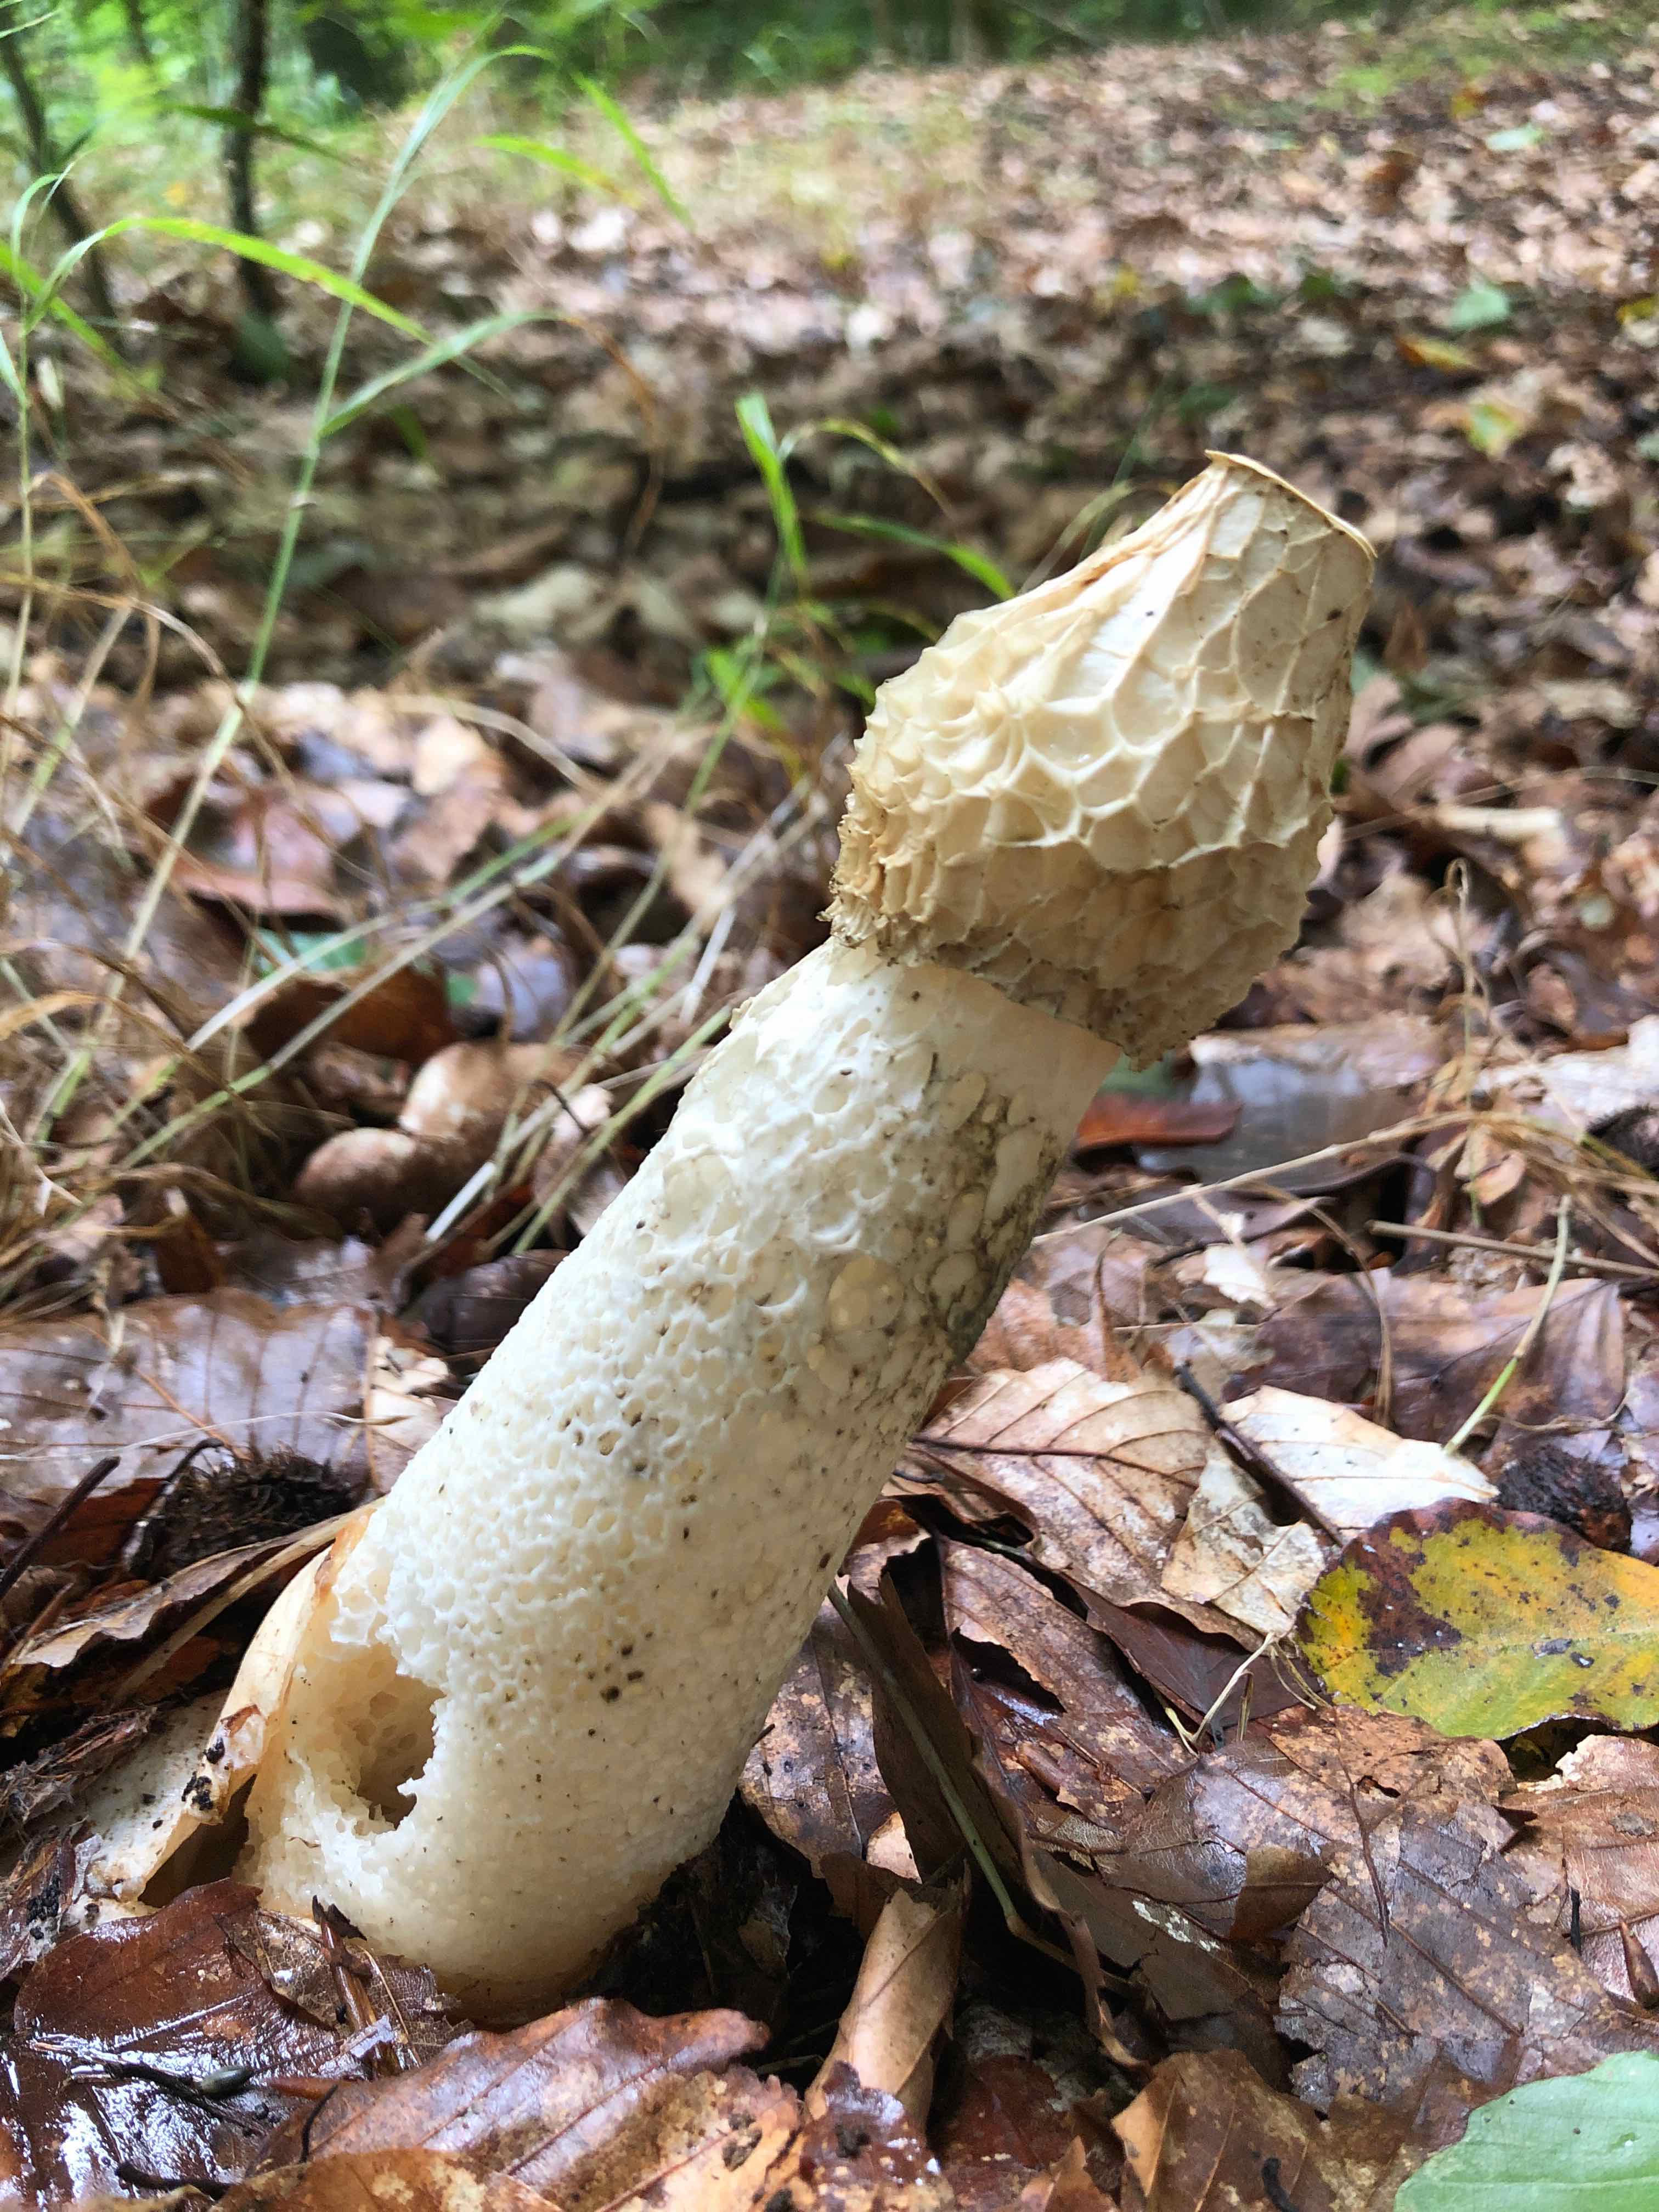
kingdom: Fungi
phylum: Basidiomycota
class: Agaricomycetes
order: Phallales
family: Phallaceae
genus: Phallus
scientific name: Phallus impudicus
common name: almindelig stinksvamp
